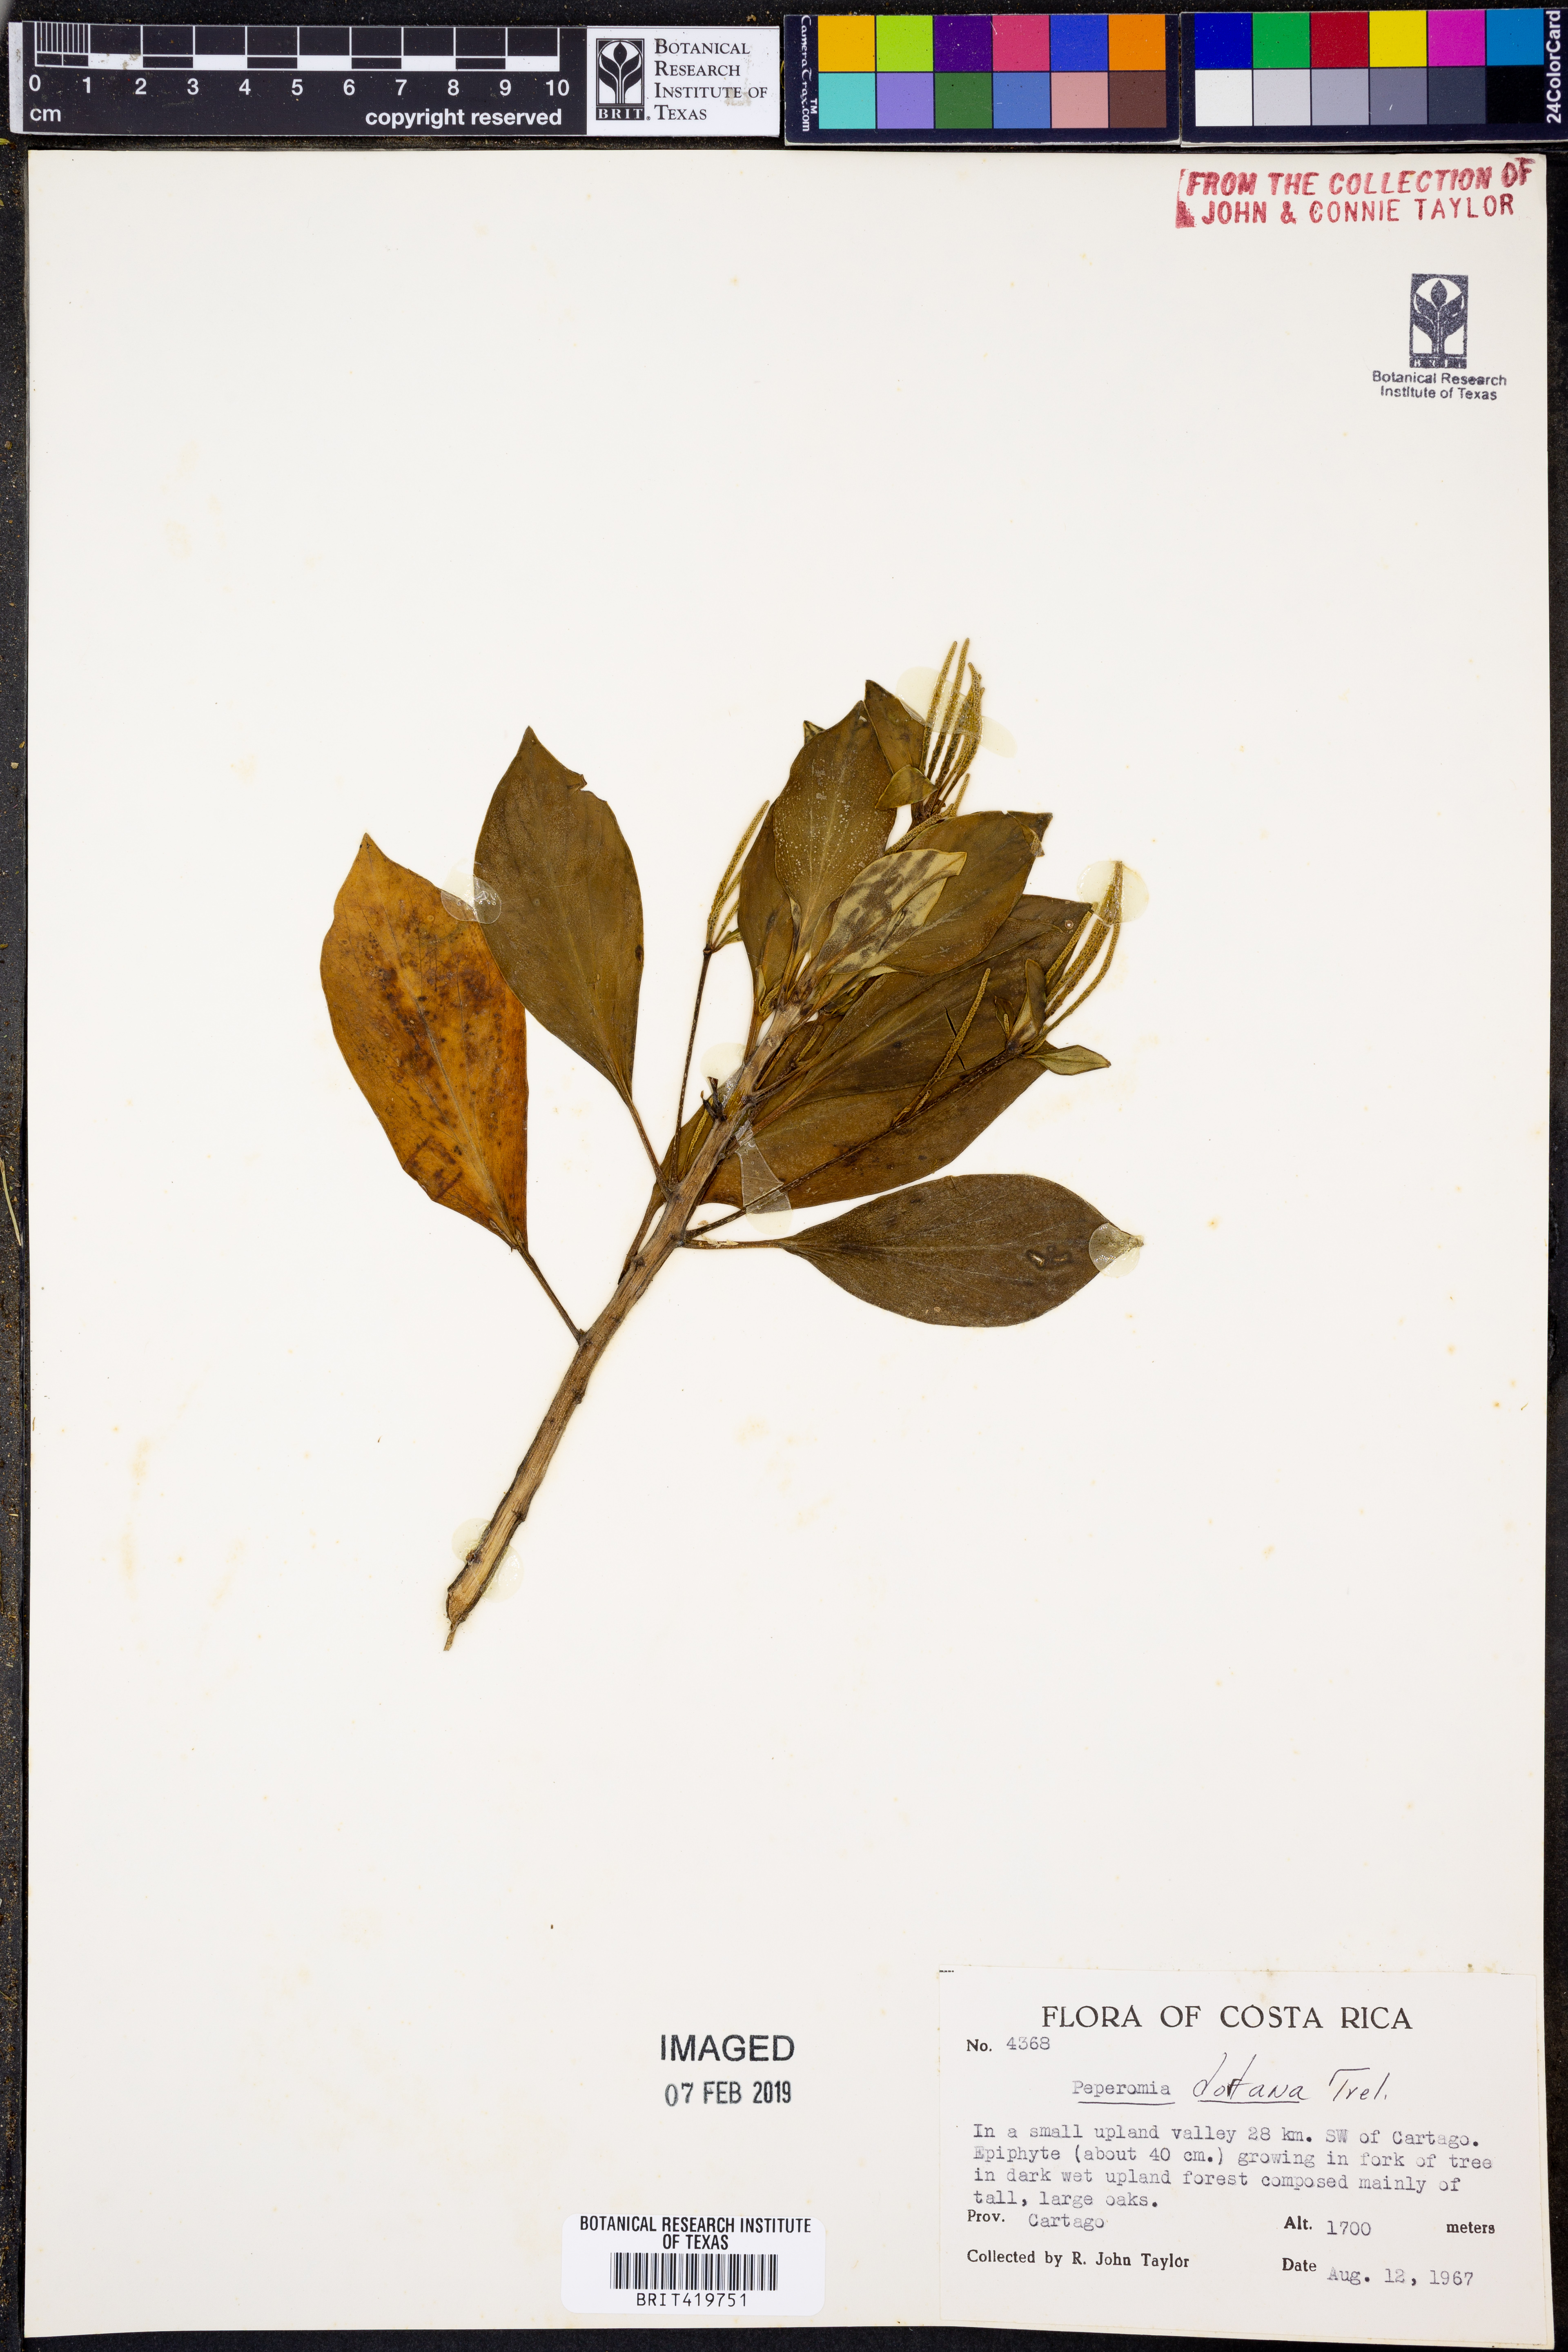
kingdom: Plantae
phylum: Tracheophyta
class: Magnoliopsida
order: Piperales
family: Piperaceae
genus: Peperomia
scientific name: Peperomia dotana
